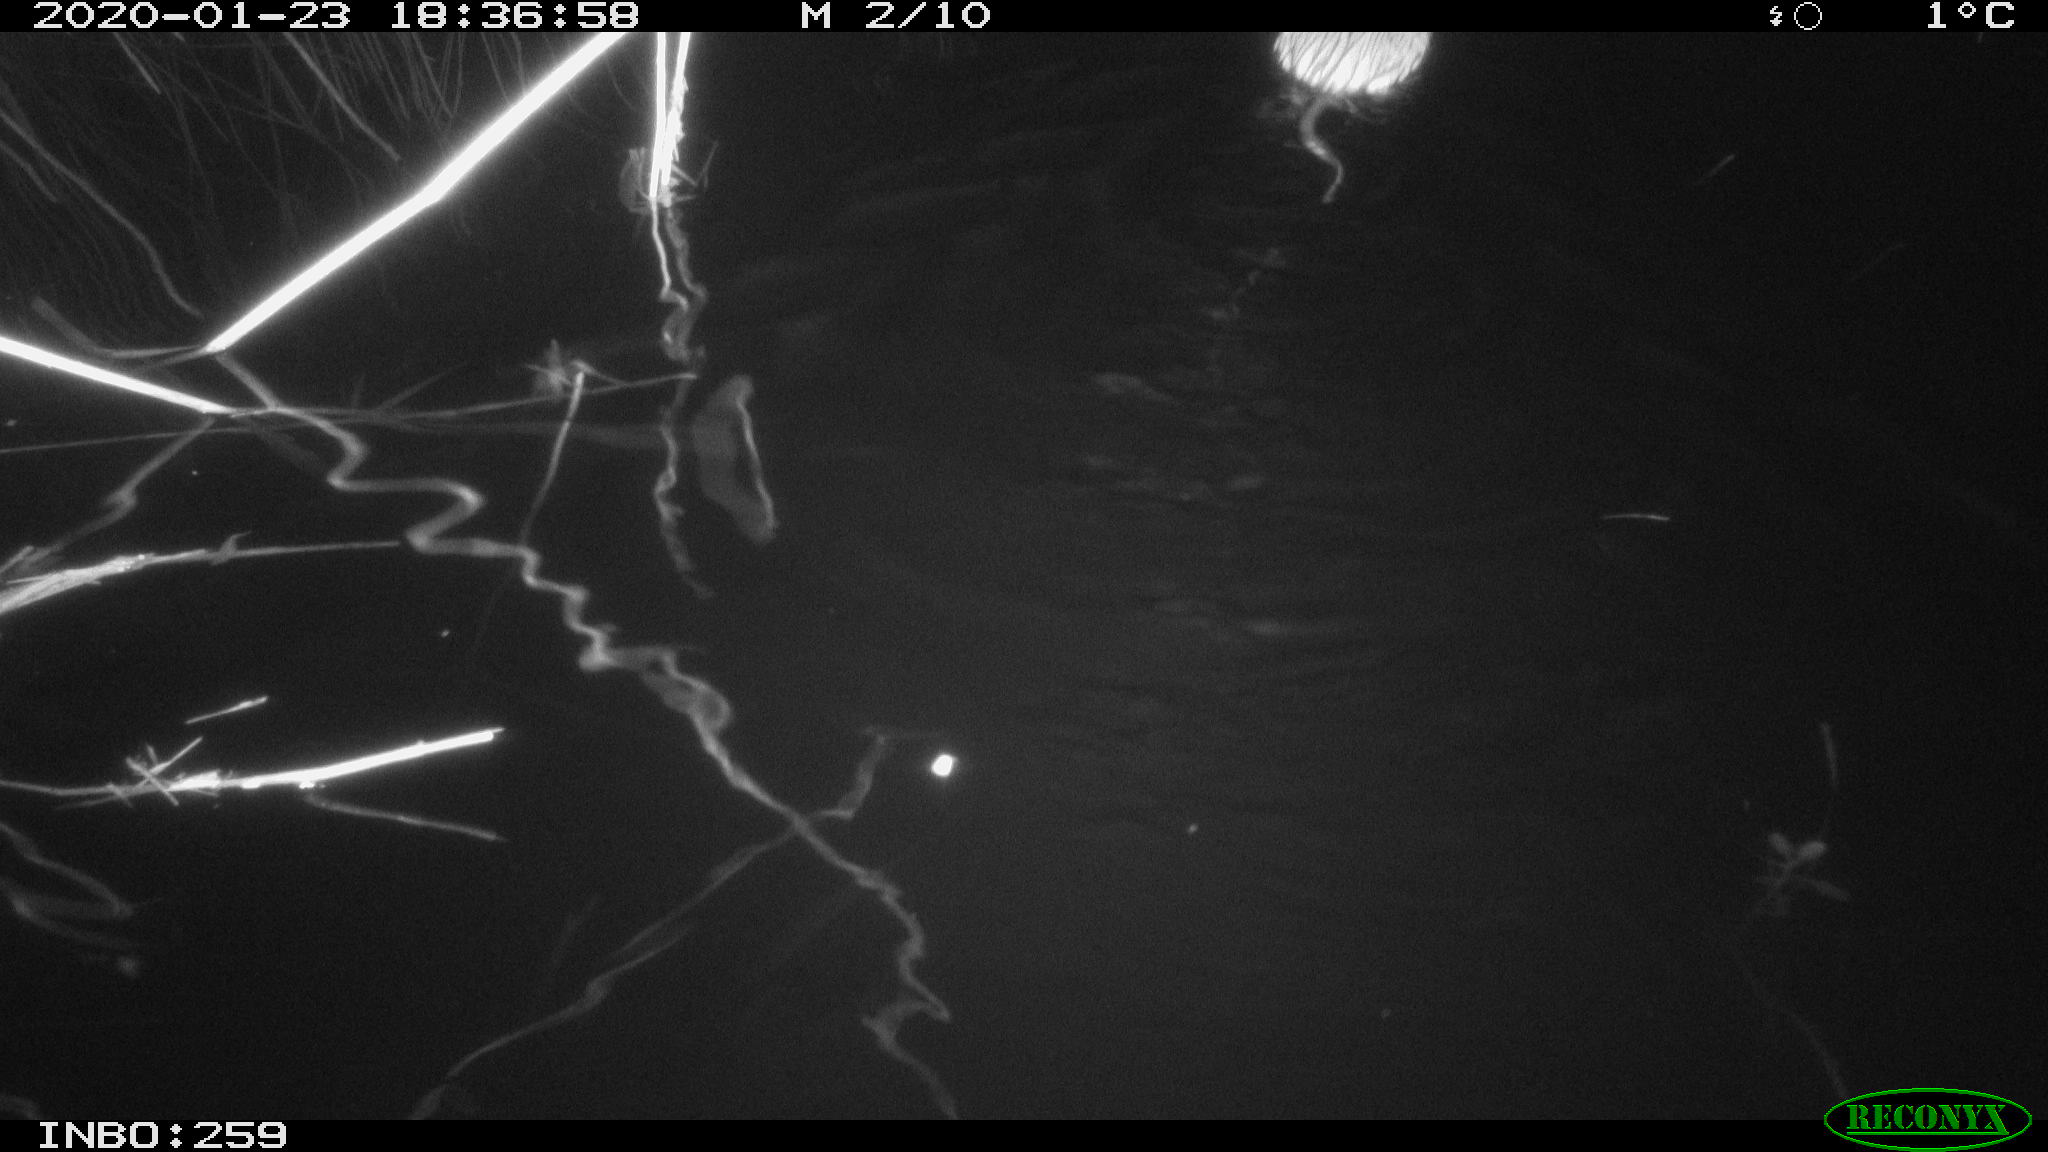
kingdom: Animalia
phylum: Chordata
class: Mammalia
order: Rodentia
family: Cricetidae
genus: Ondatra
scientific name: Ondatra zibethicus
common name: Muskrat
